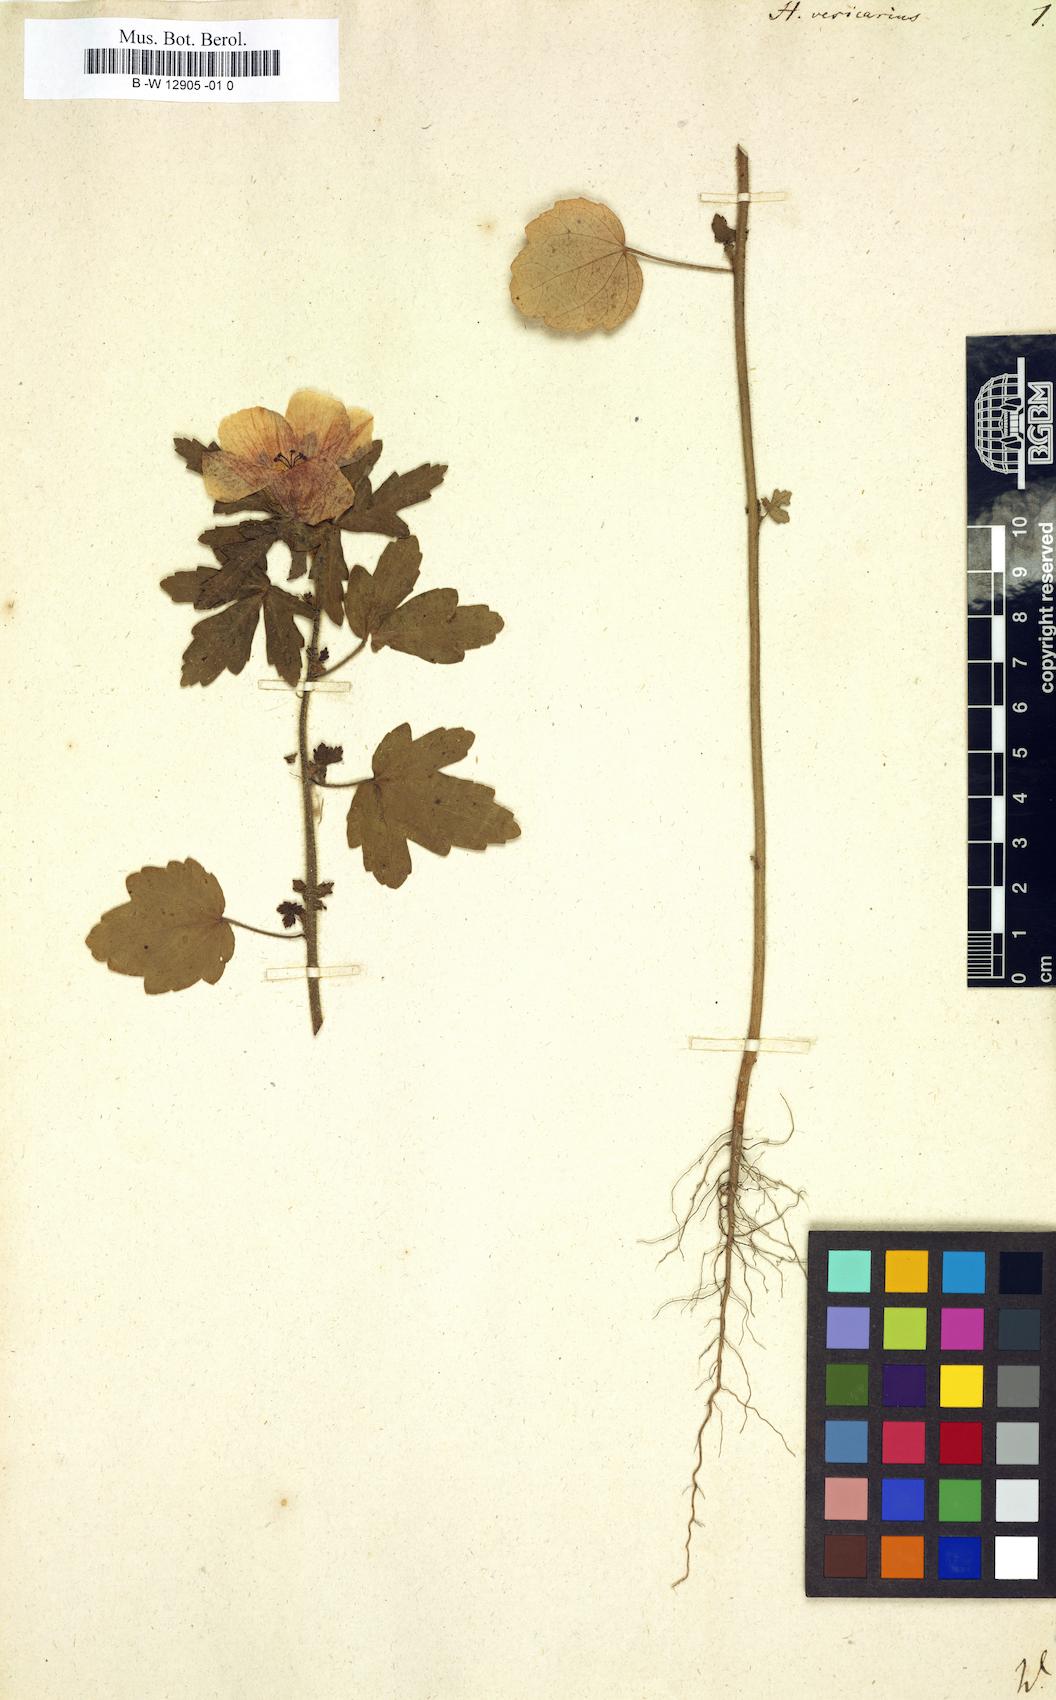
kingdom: Plantae
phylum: Tracheophyta
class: Magnoliopsida
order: Malvales
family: Malvaceae
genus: Hibiscus
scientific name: Hibiscus trionum
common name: Bladder ketmia
